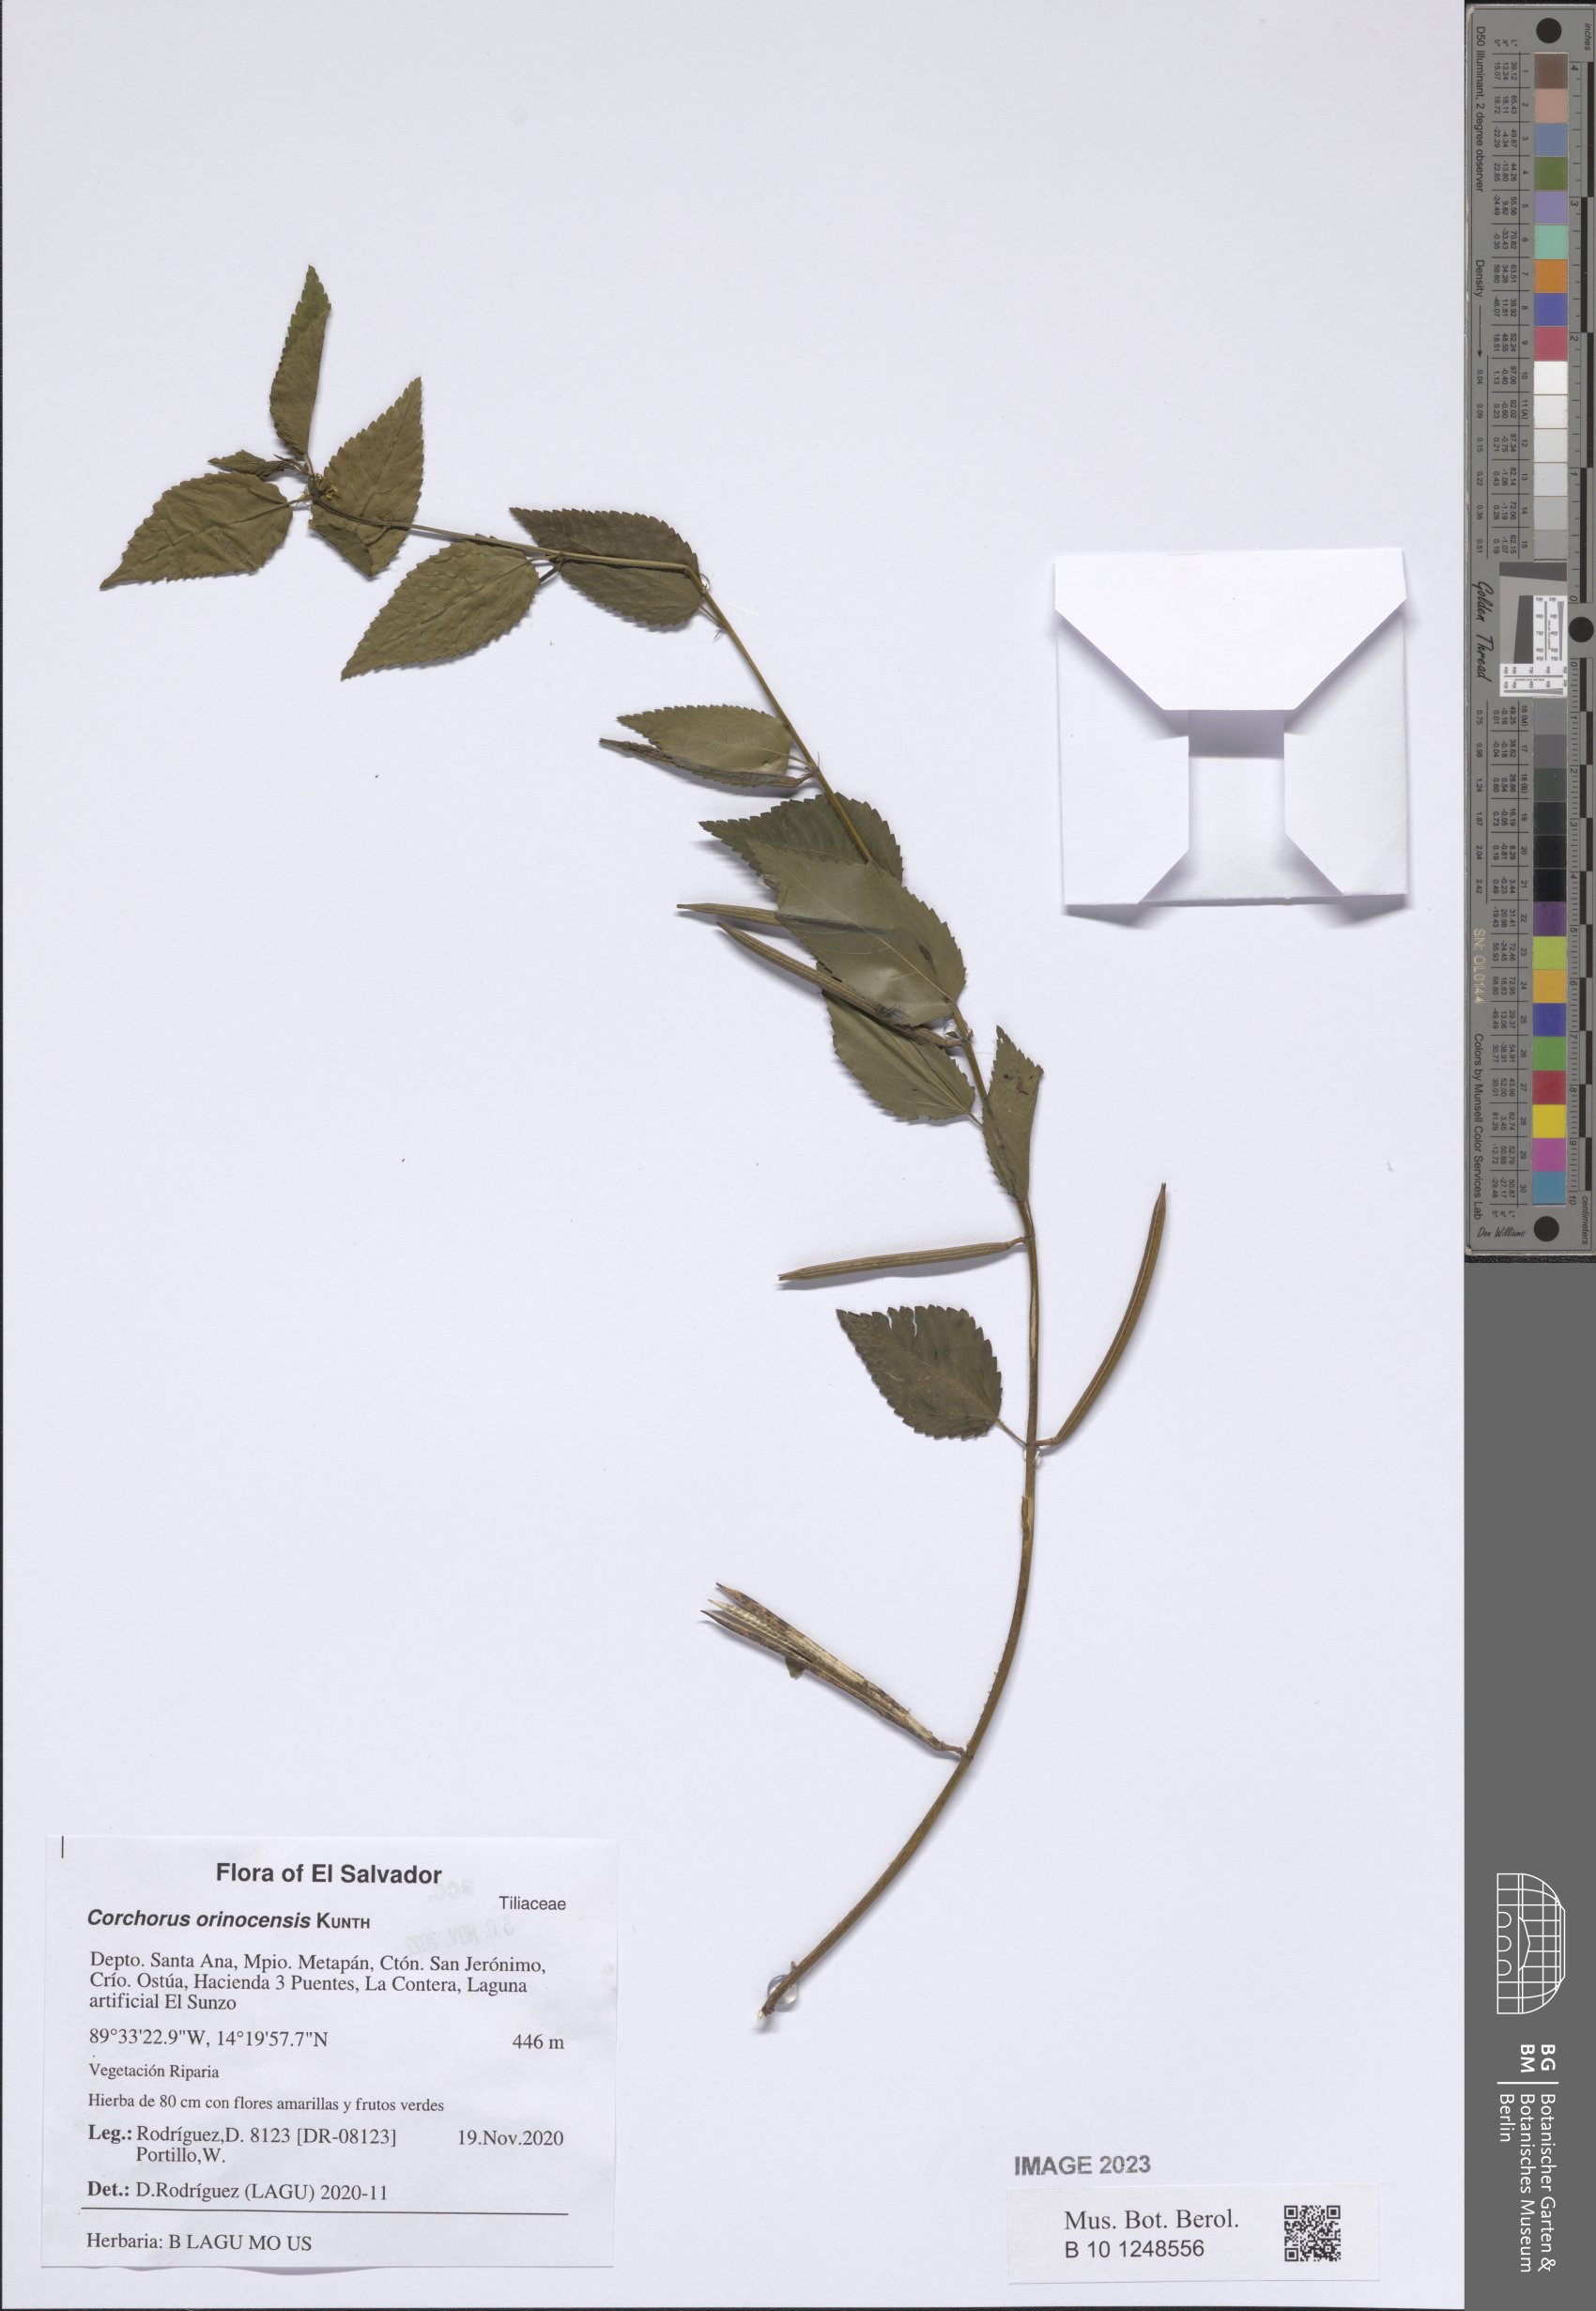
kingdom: Plantae
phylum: Tracheophyta
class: Magnoliopsida
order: Malvales
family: Malvaceae
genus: Corchorus
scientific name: Corchorus orinocensis
